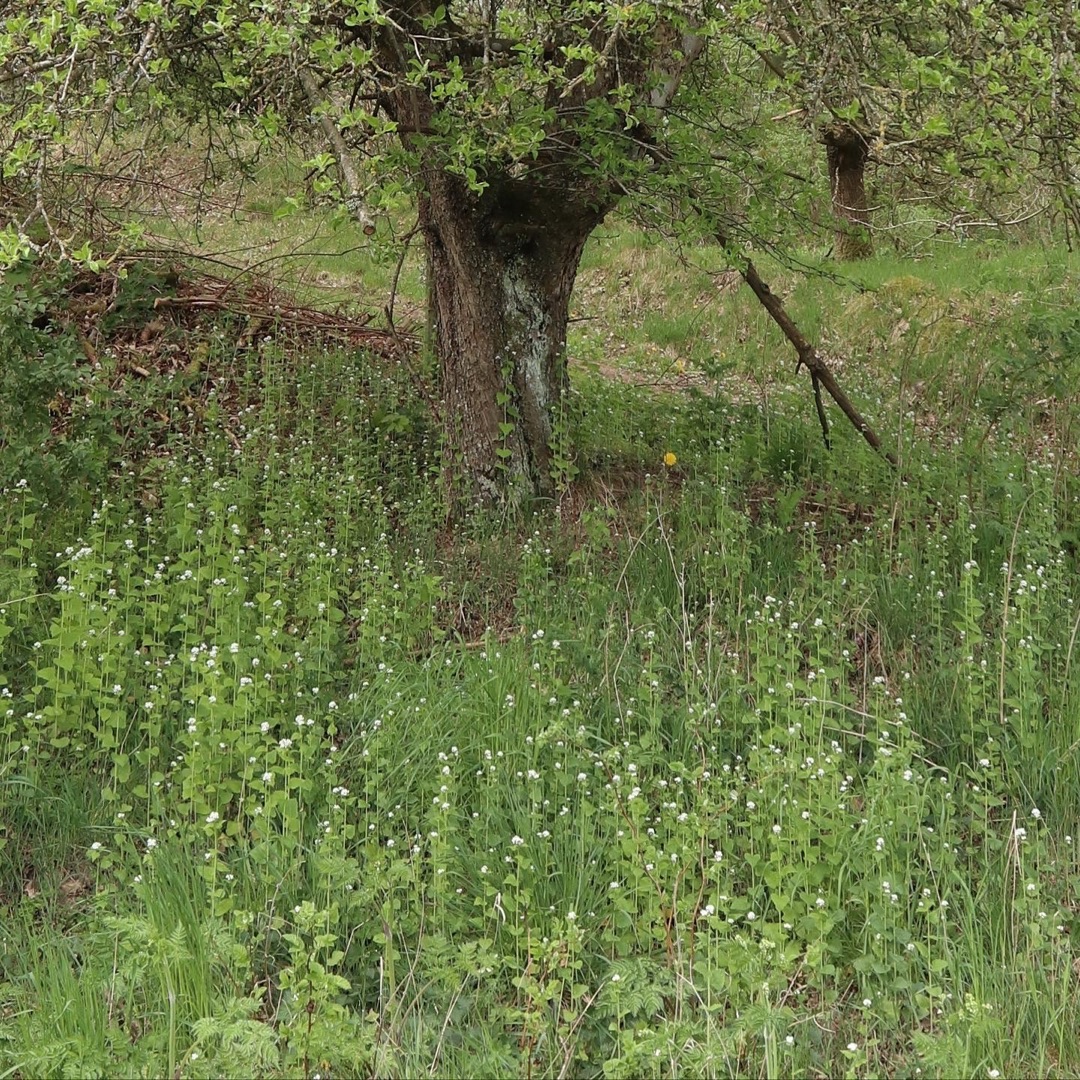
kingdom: Plantae
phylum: Tracheophyta
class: Magnoliopsida
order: Brassicales
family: Brassicaceae
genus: Alliaria
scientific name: Alliaria petiolata
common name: Løgkarse
